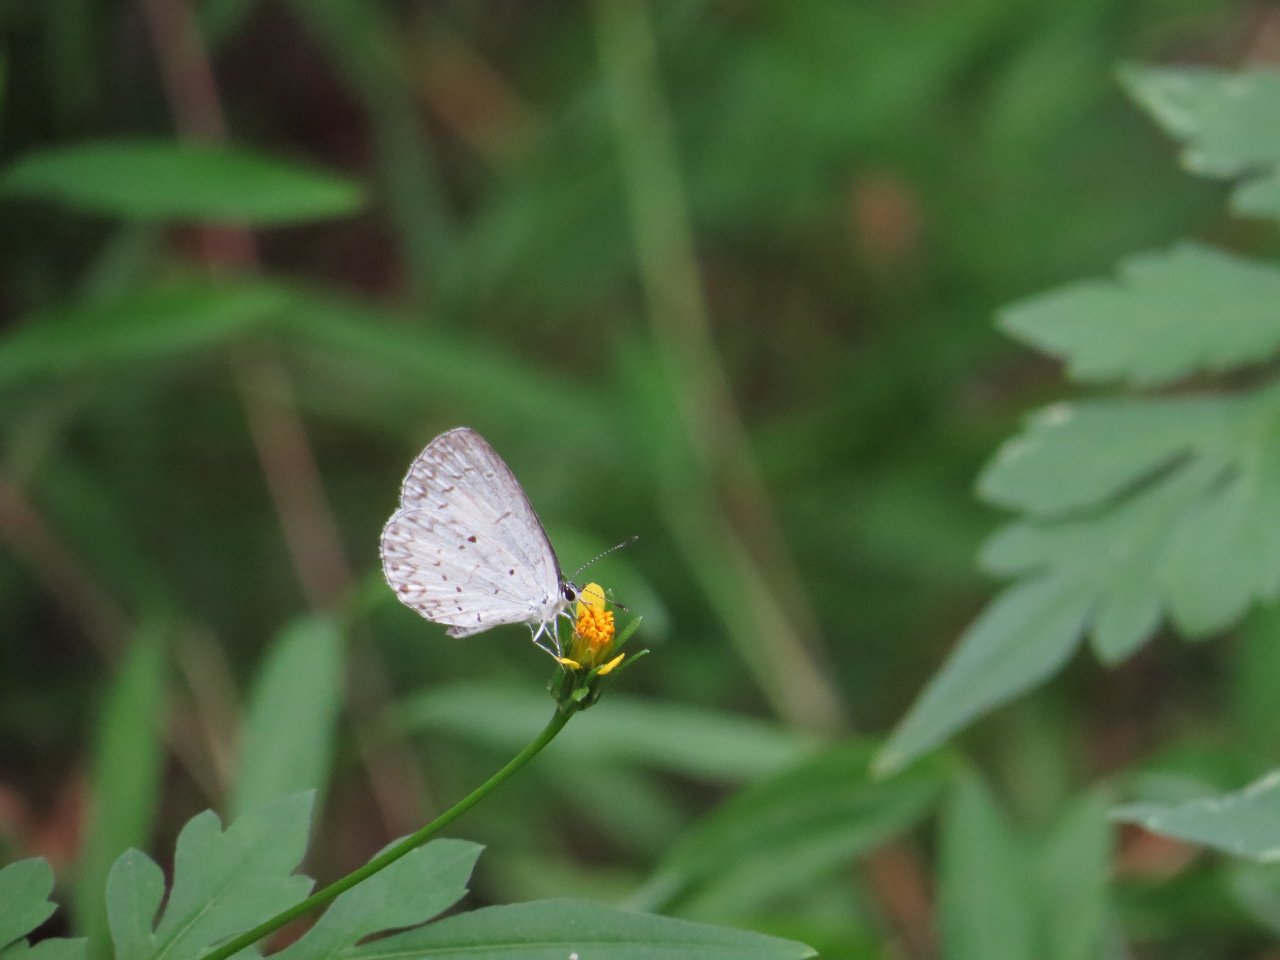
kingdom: Animalia
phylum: Arthropoda
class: Insecta
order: Lepidoptera
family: Lycaenidae
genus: Cyaniris
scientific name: Cyaniris neglecta
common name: Summer Azure
